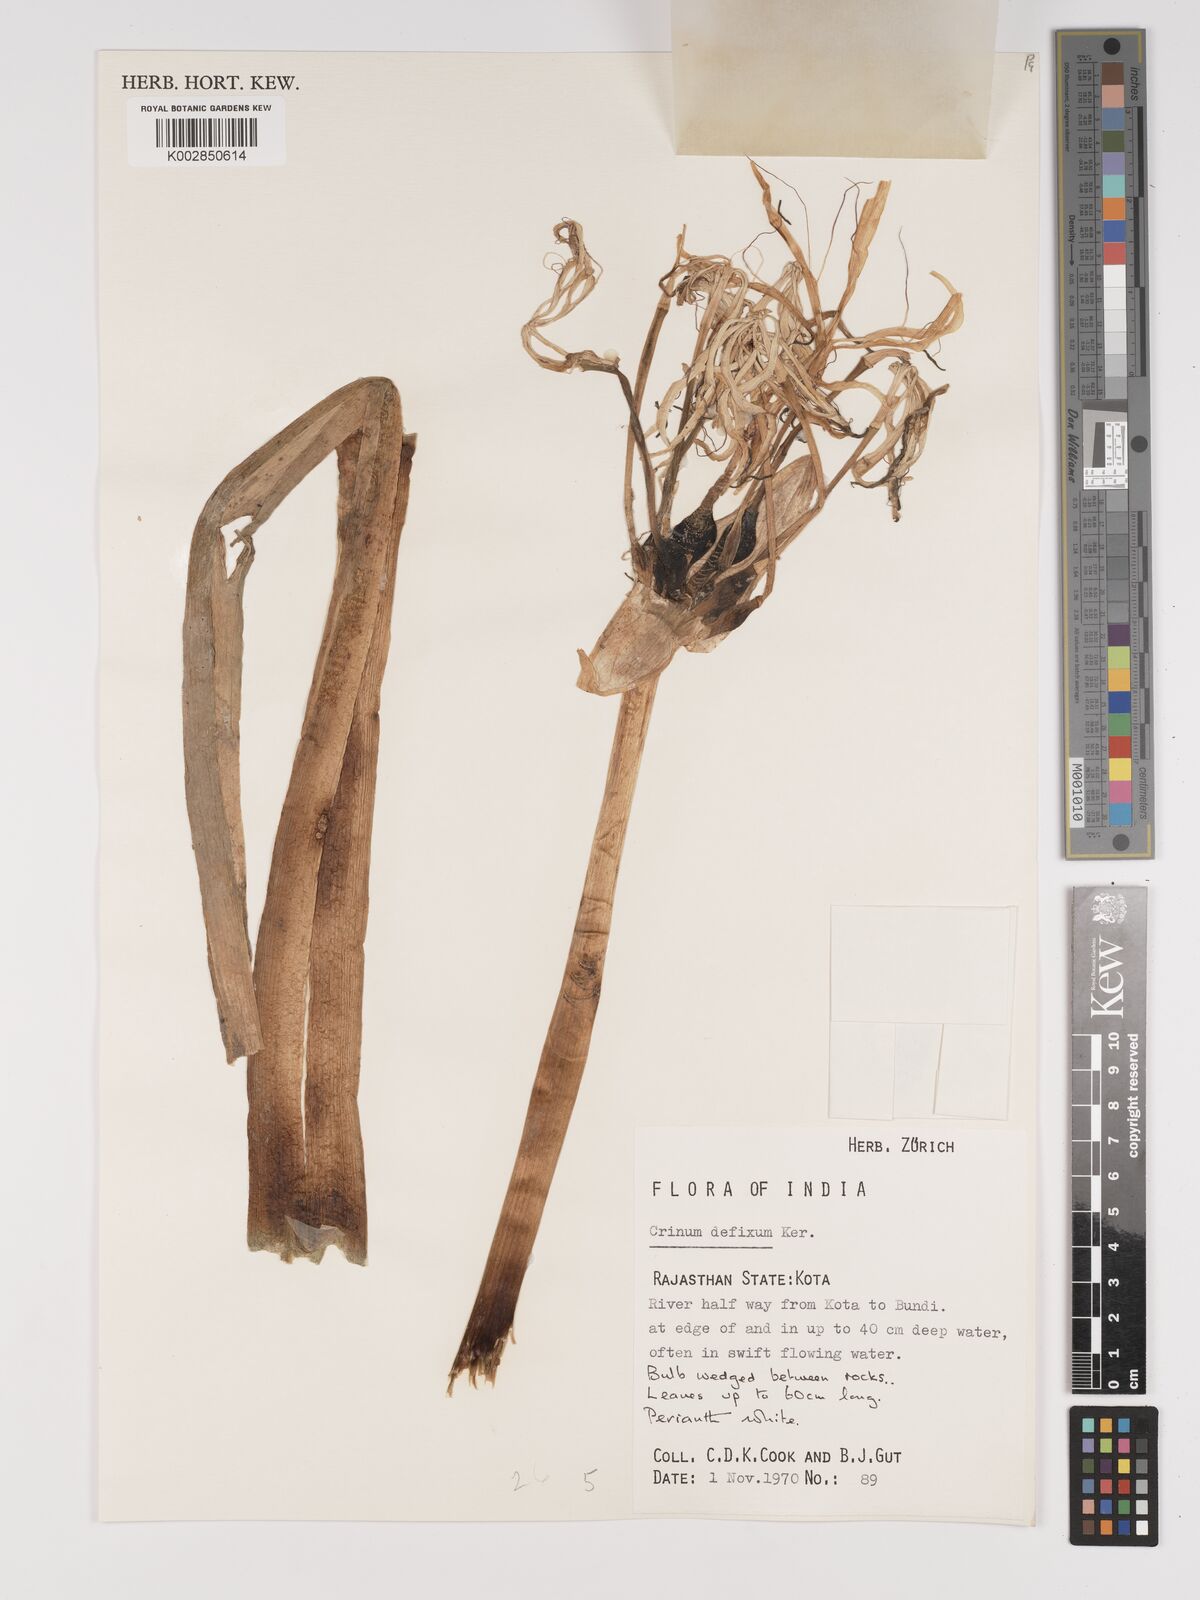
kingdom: Plantae
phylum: Tracheophyta
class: Liliopsida
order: Asparagales
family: Amaryllidaceae
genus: Crinum
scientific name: Crinum defixum
